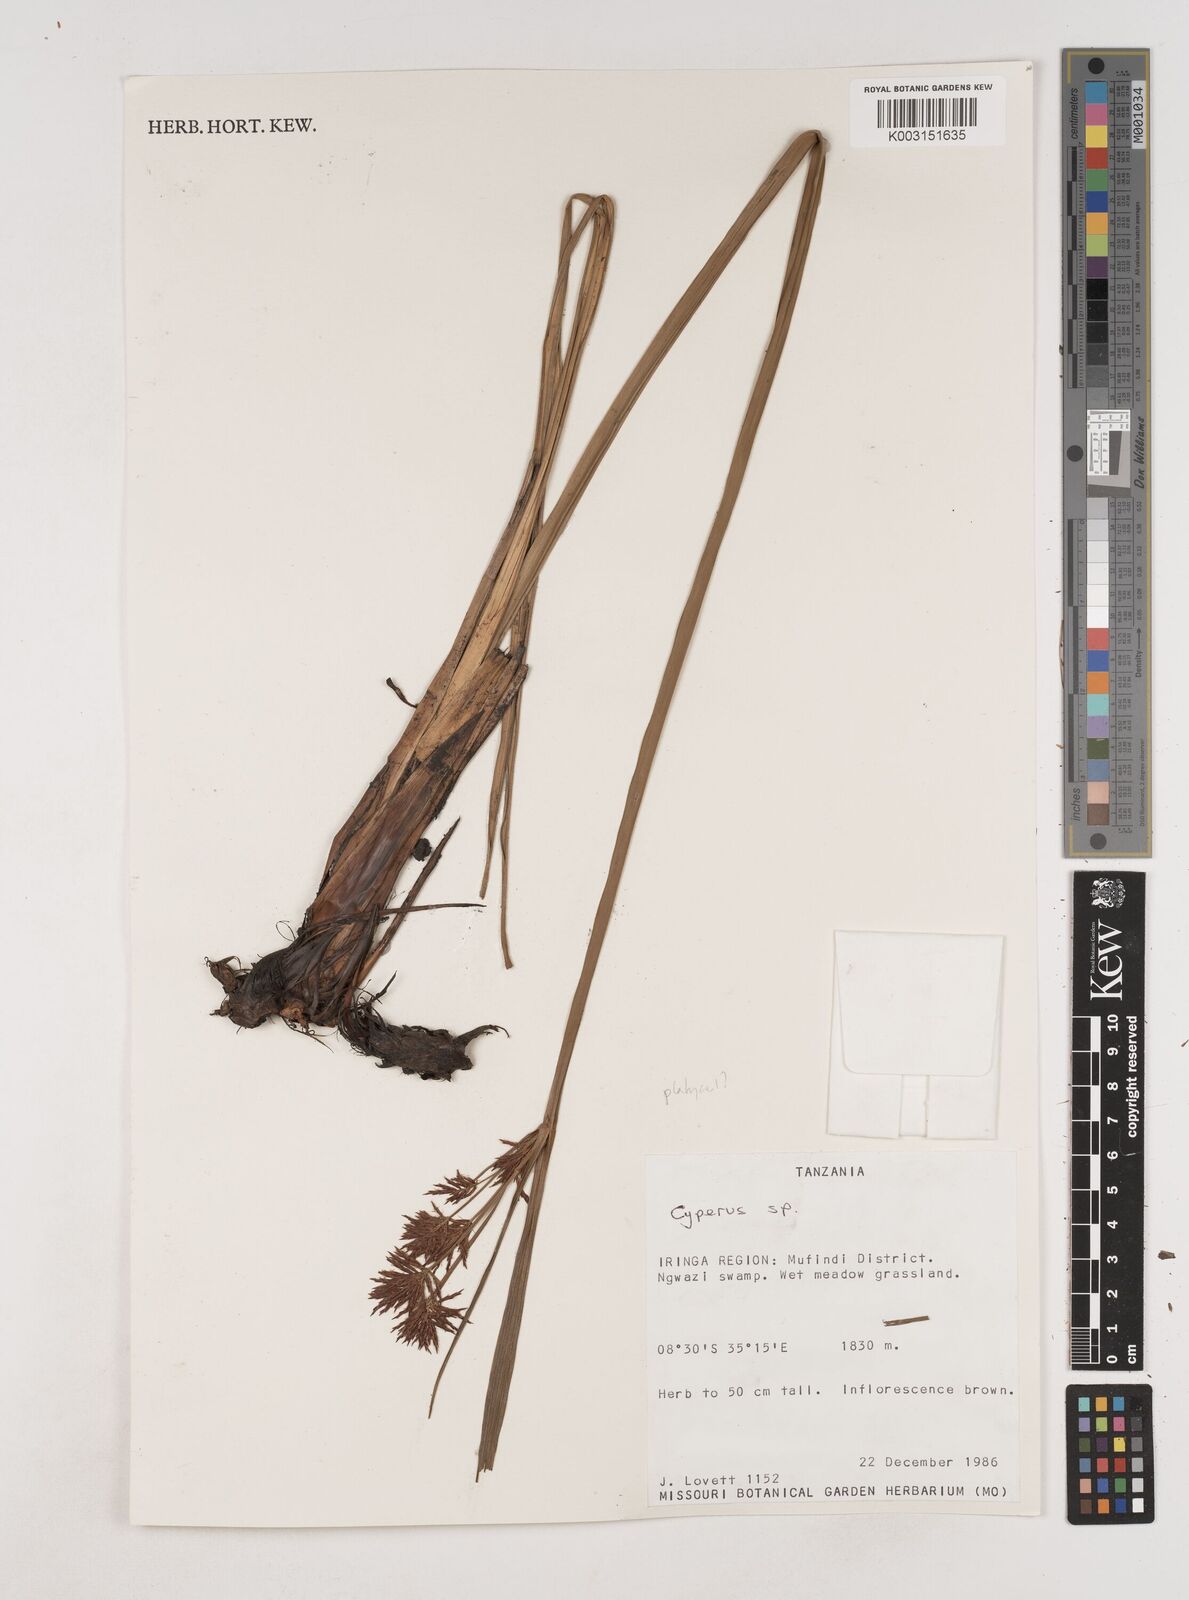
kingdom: Plantae
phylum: Tracheophyta
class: Liliopsida
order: Poales
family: Cyperaceae
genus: Cyperus
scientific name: Cyperus digitatus
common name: Finger flatsedge
